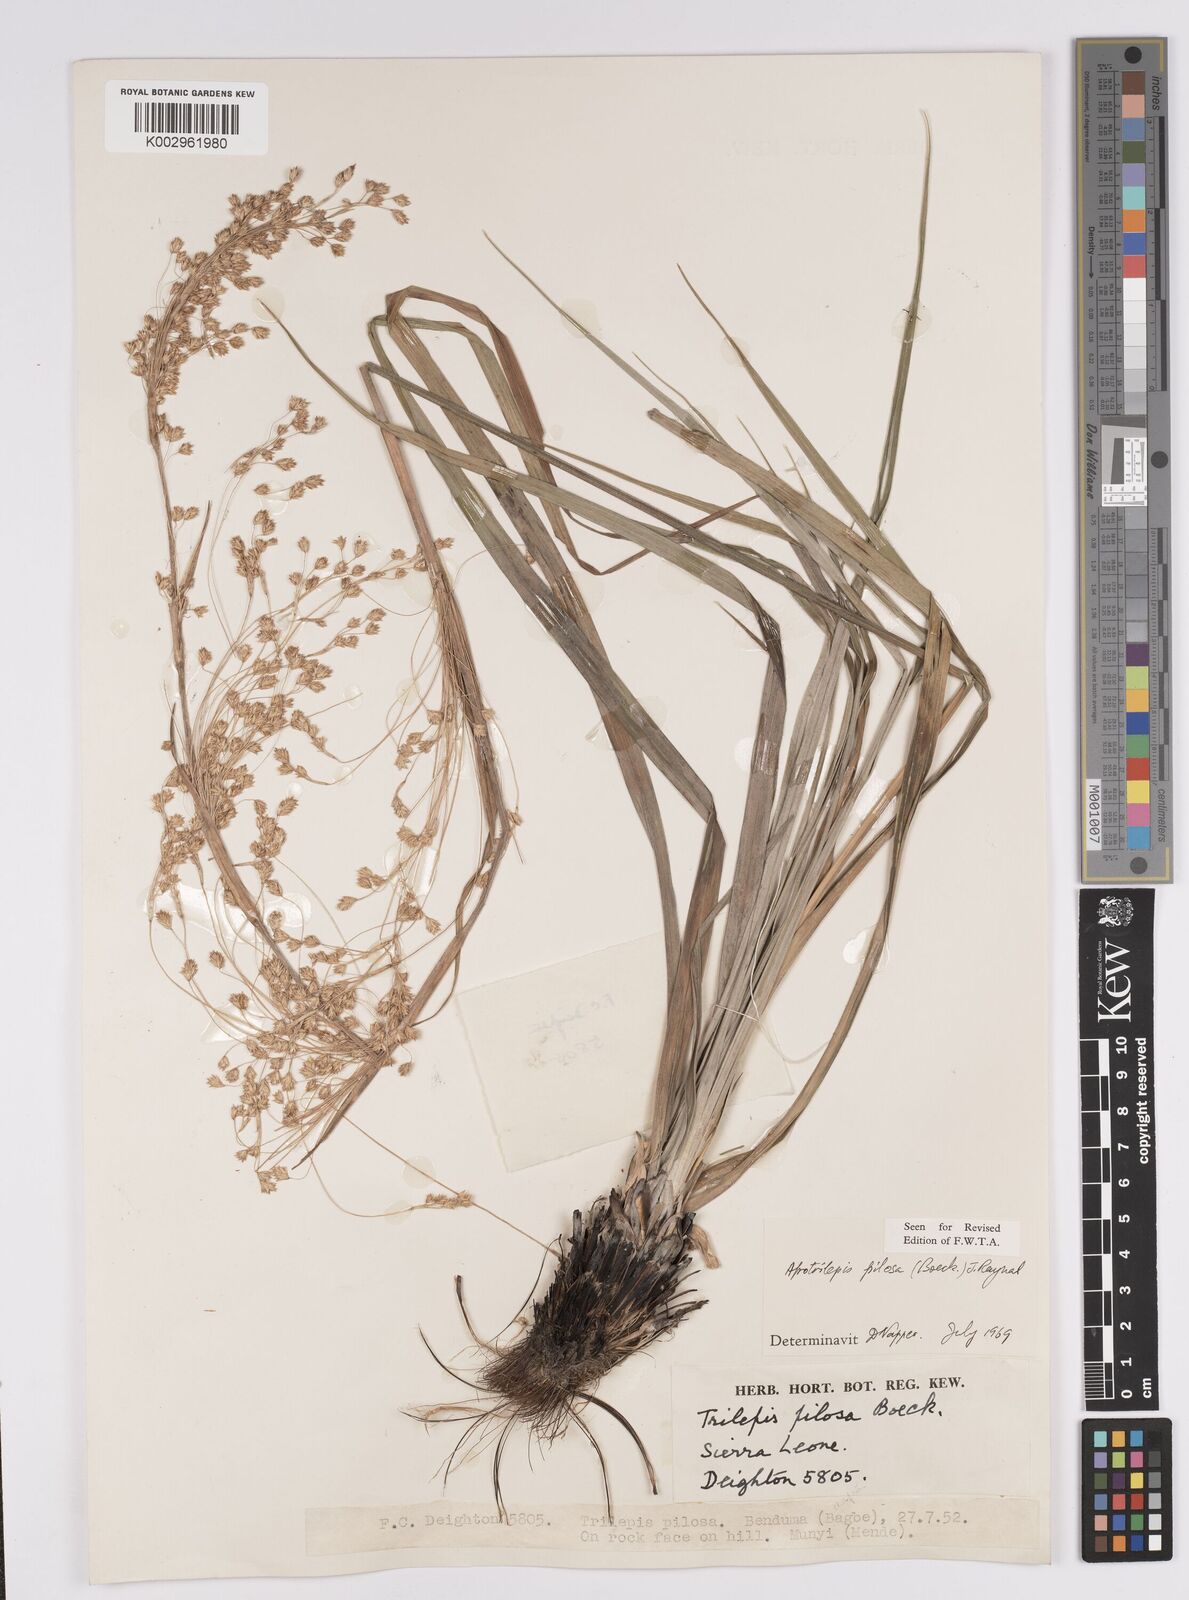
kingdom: Plantae
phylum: Tracheophyta
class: Liliopsida
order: Poales
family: Cyperaceae
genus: Afrotrilepis
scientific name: Afrotrilepis pilosa
